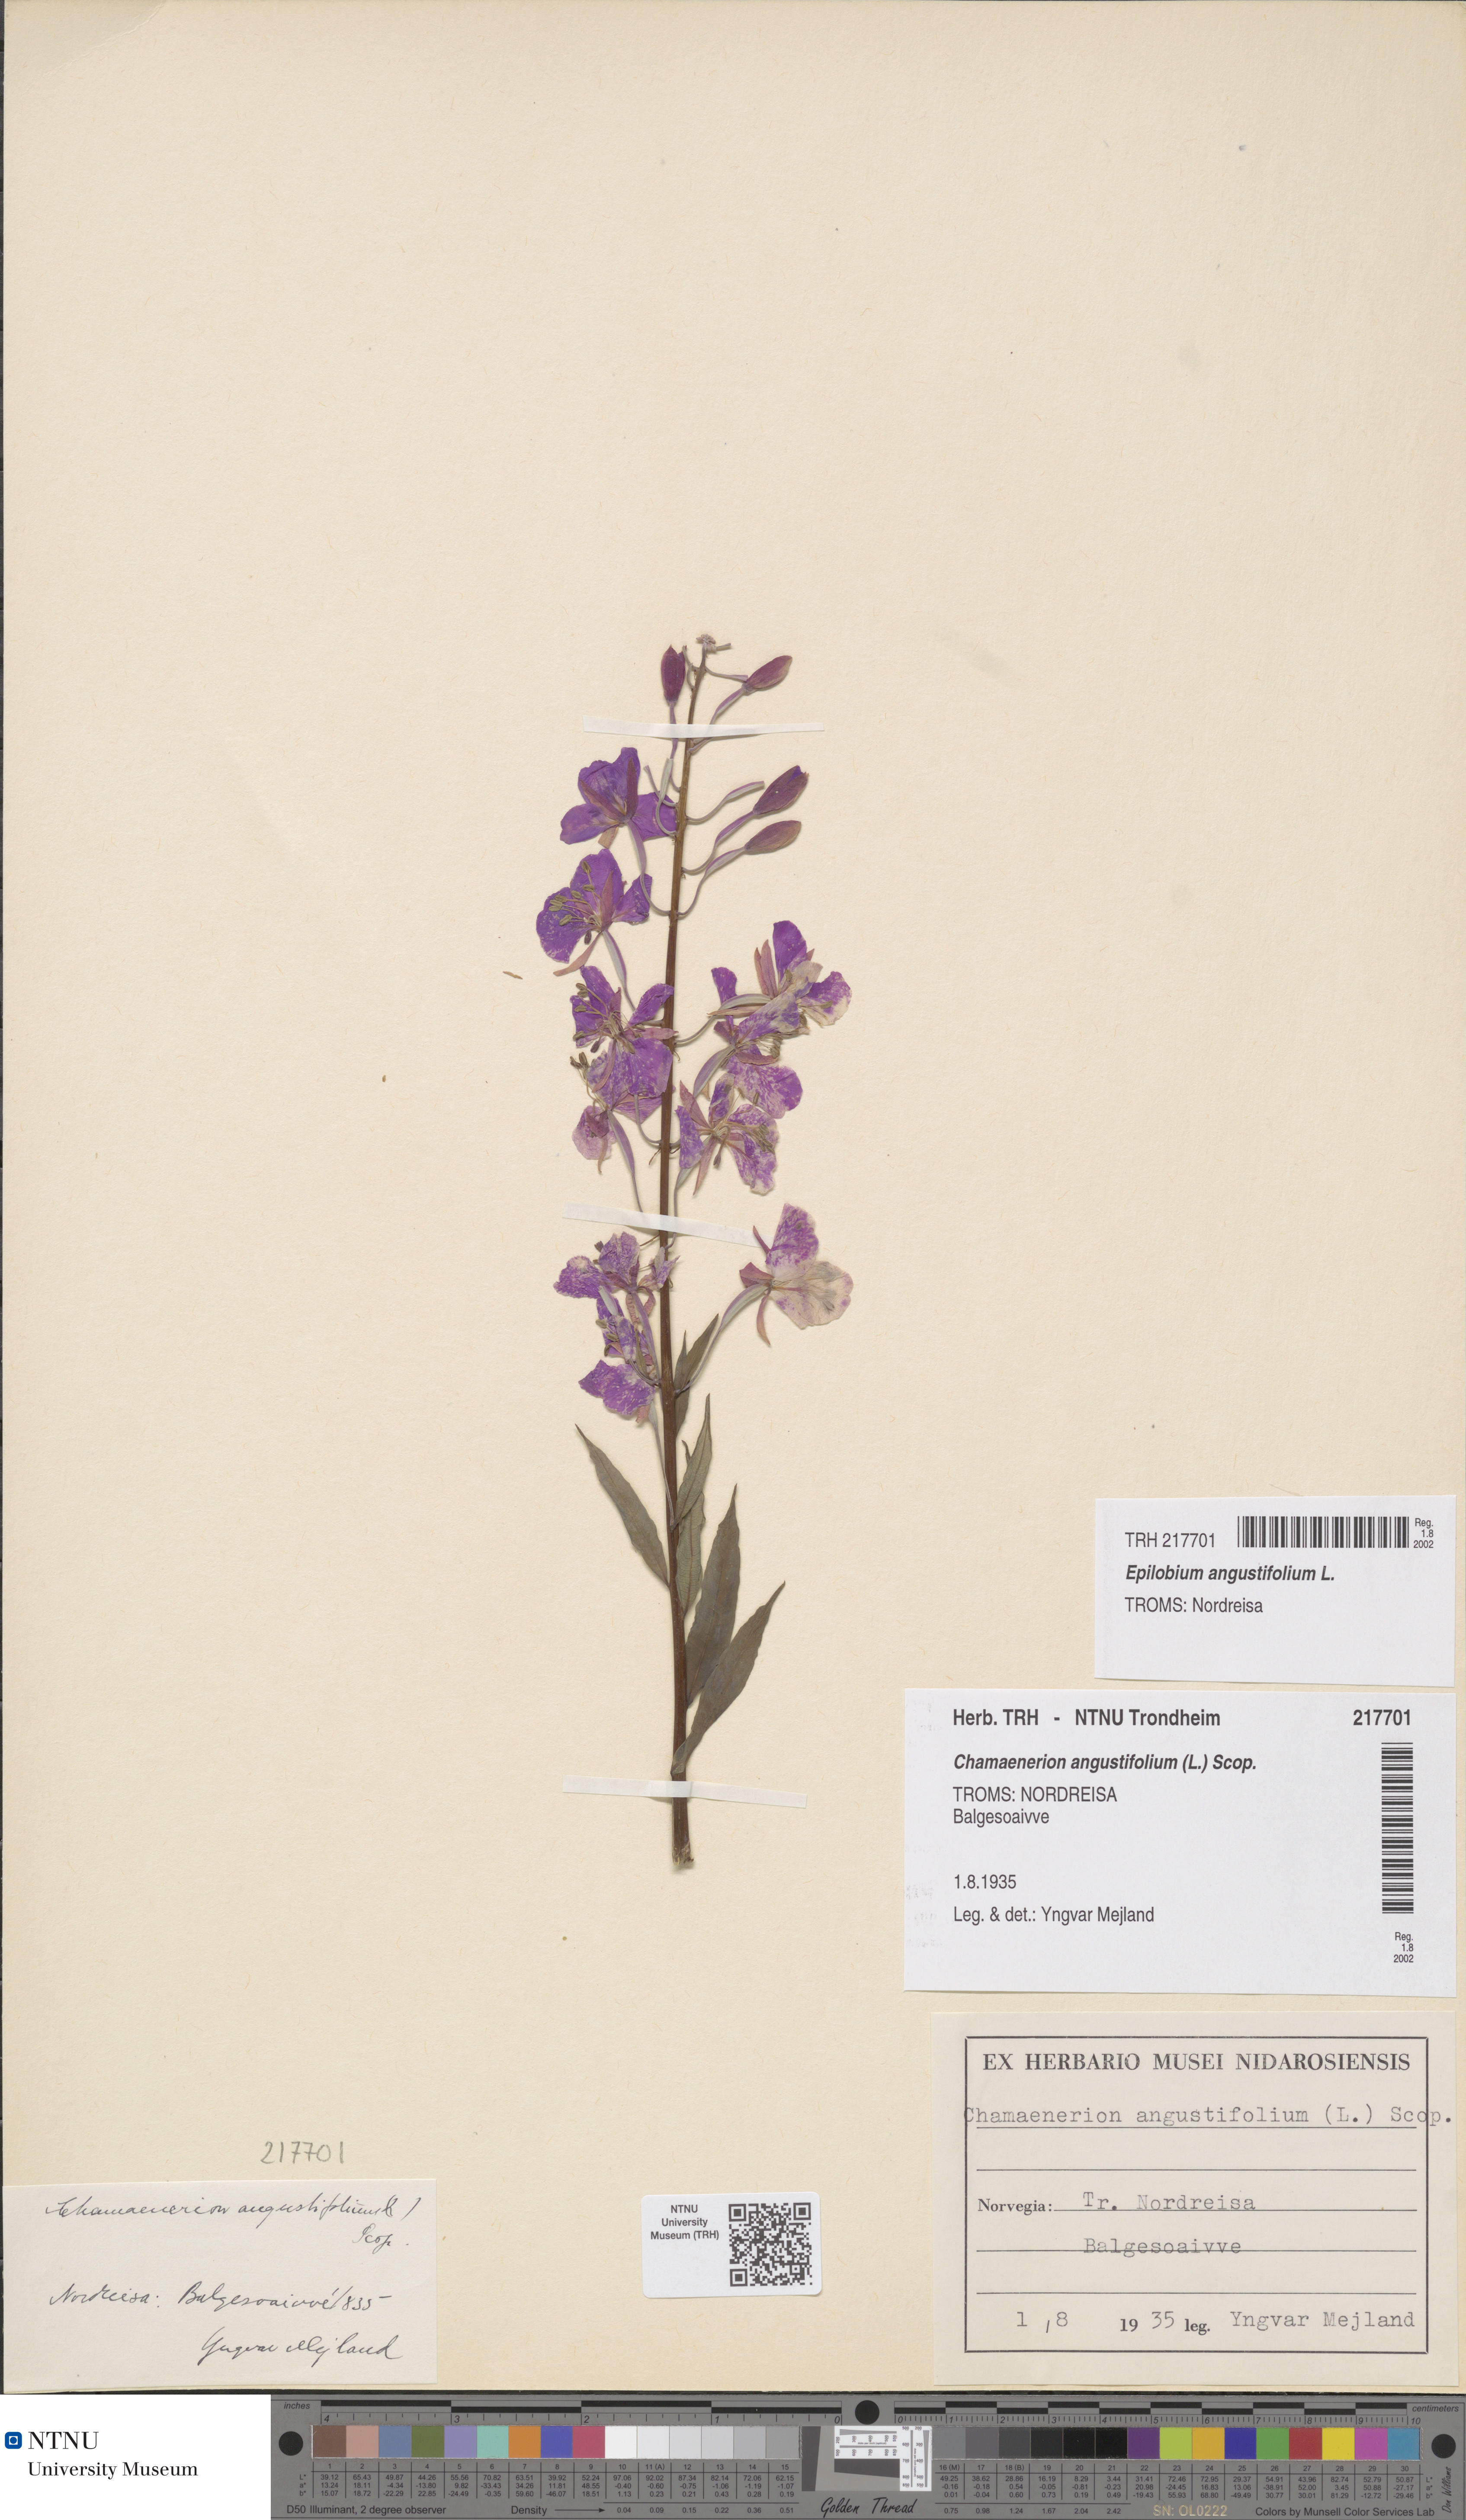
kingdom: Plantae
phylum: Tracheophyta
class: Magnoliopsida
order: Myrtales
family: Onagraceae
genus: Chamaenerion
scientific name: Chamaenerion angustifolium
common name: Fireweed
